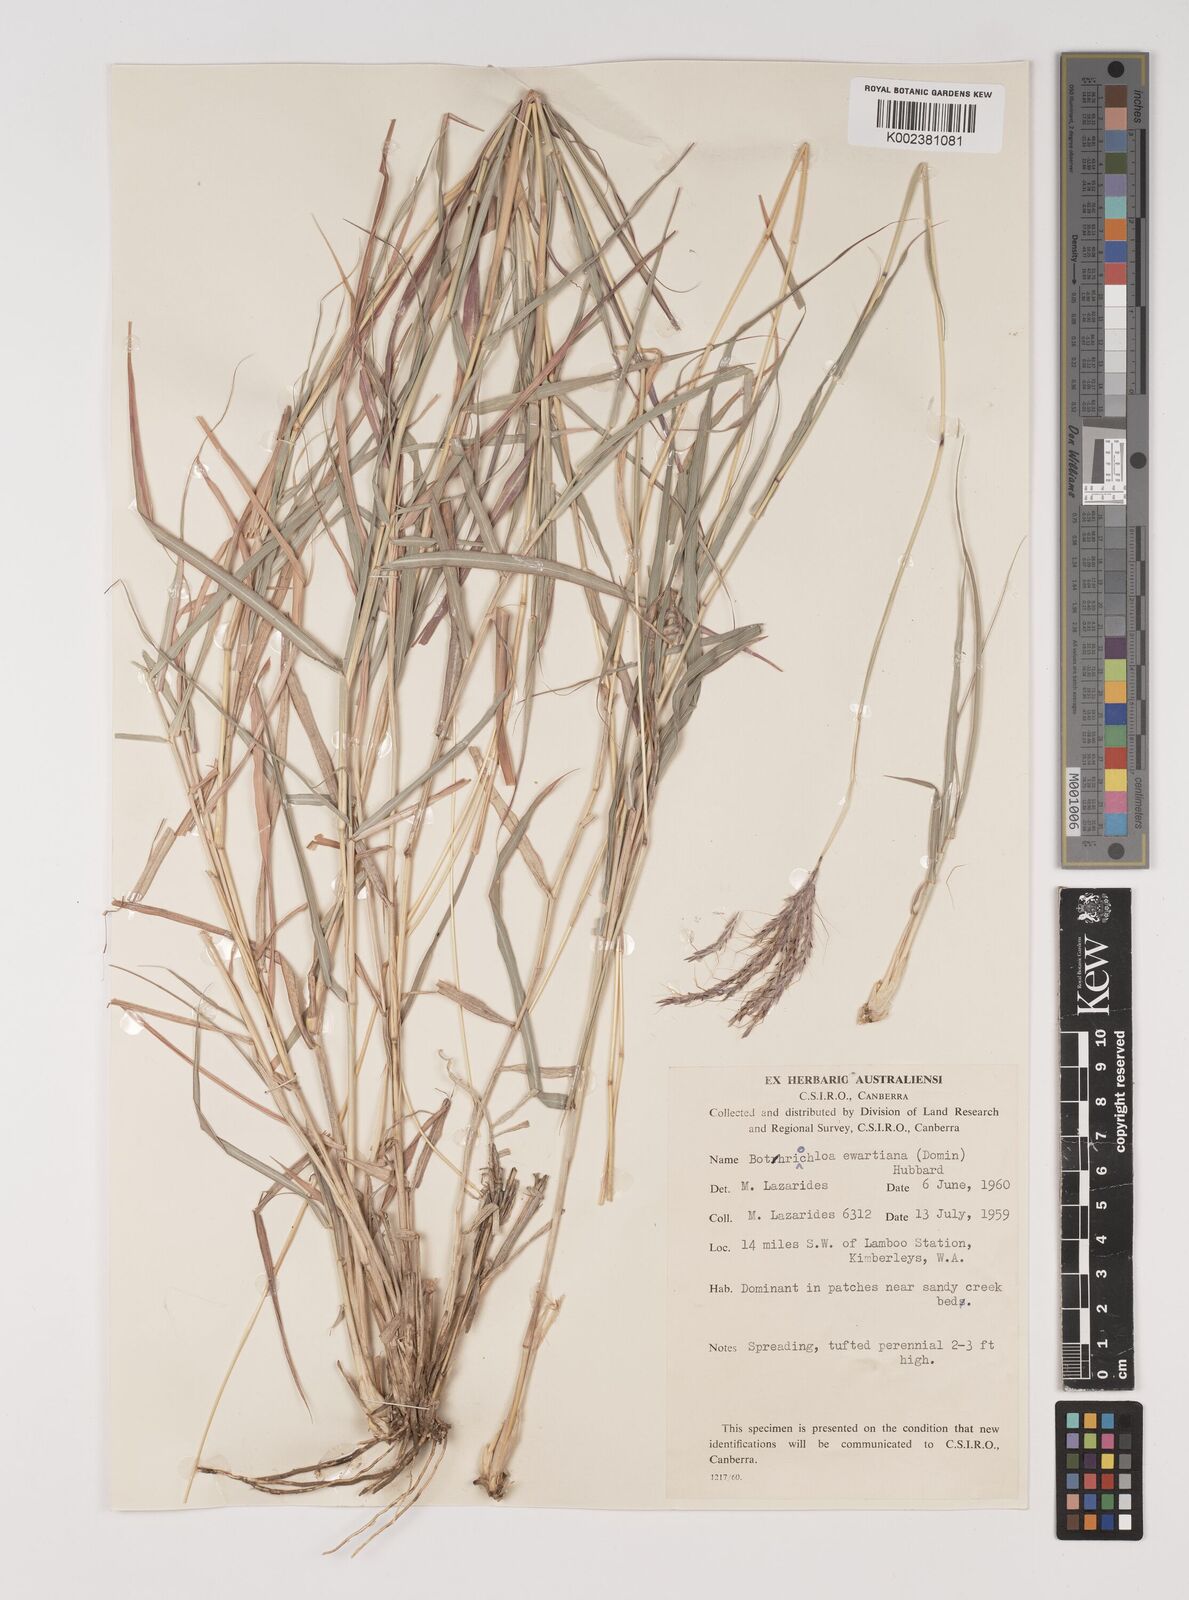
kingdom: Plantae
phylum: Tracheophyta
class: Liliopsida
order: Poales
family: Poaceae
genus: Bothriochloa
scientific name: Bothriochloa ewartiana
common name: Desert-bluegrass
